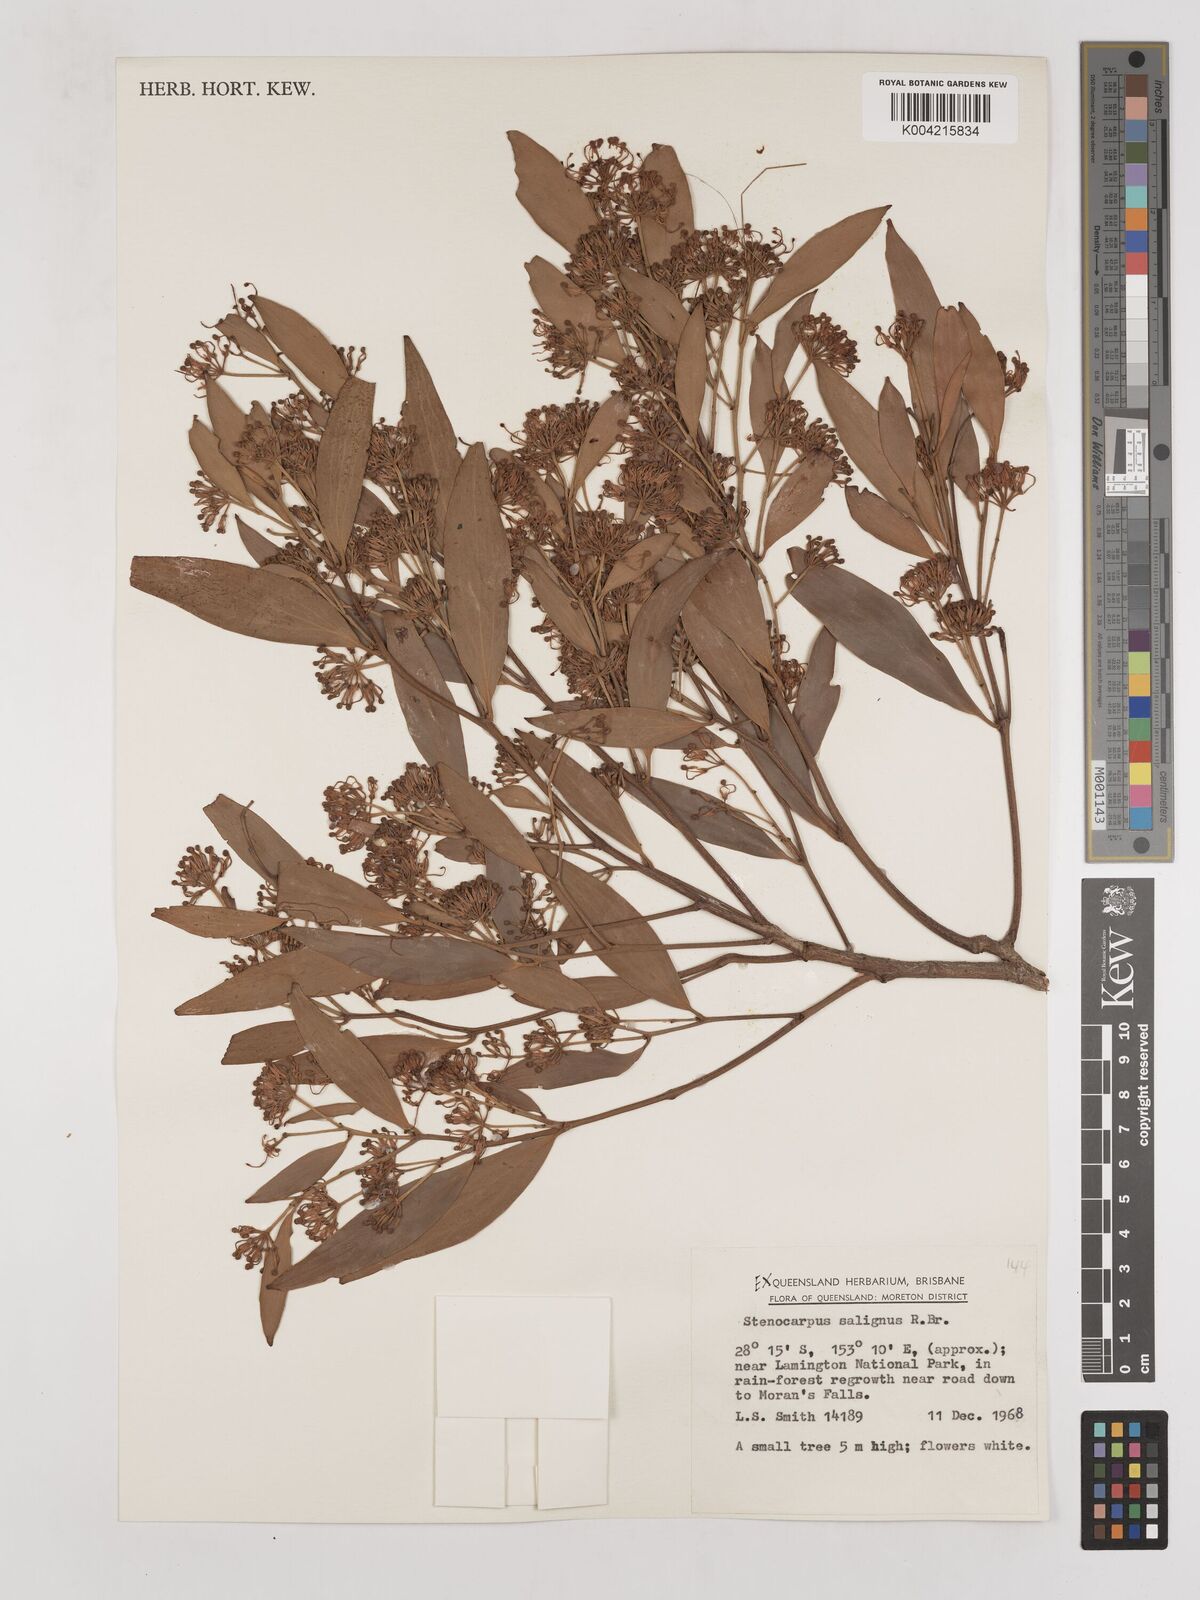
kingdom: Plantae
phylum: Tracheophyta
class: Magnoliopsida
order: Proteales
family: Proteaceae
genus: Stenocarpus
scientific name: Stenocarpus salignus
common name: Red silky-oak
